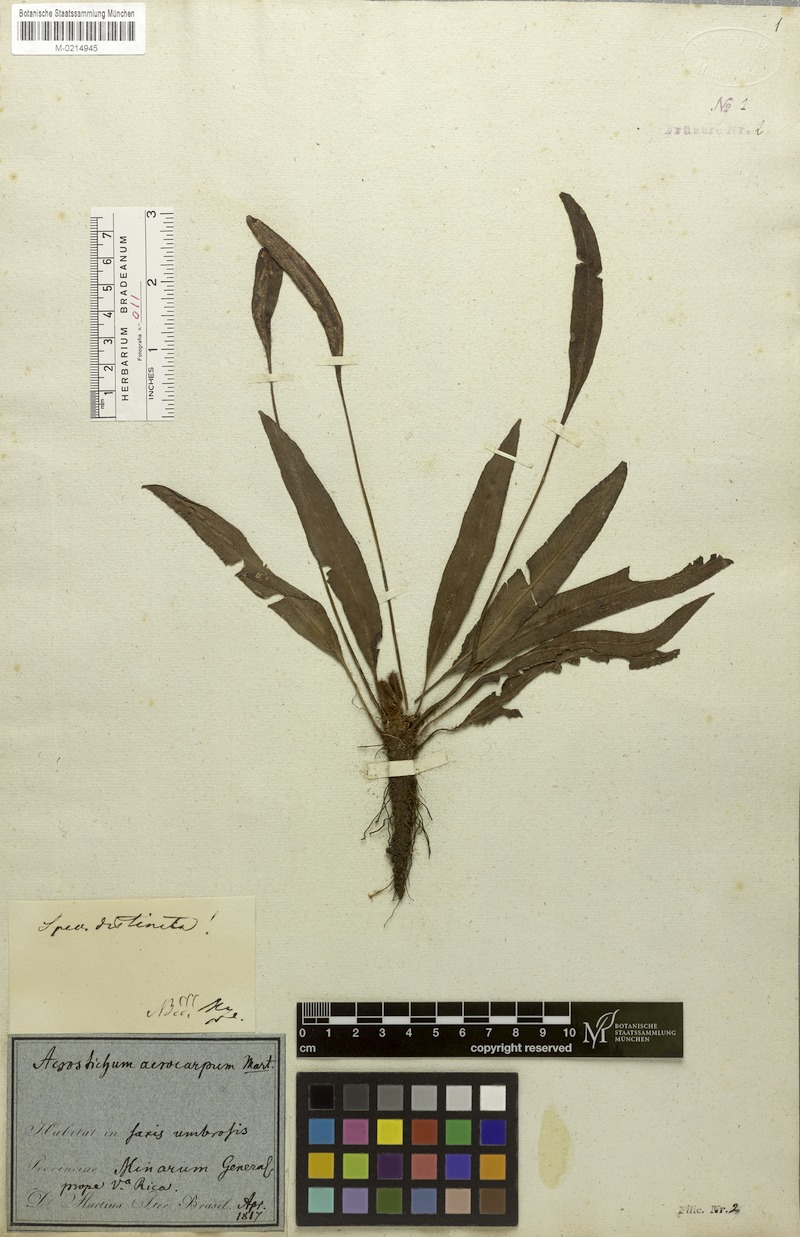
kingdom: Plantae
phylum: Tracheophyta
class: Polypodiopsida
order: Polypodiales
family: Dryopteridaceae
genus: Elaphoglossum
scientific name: Elaphoglossum acrocarpum
